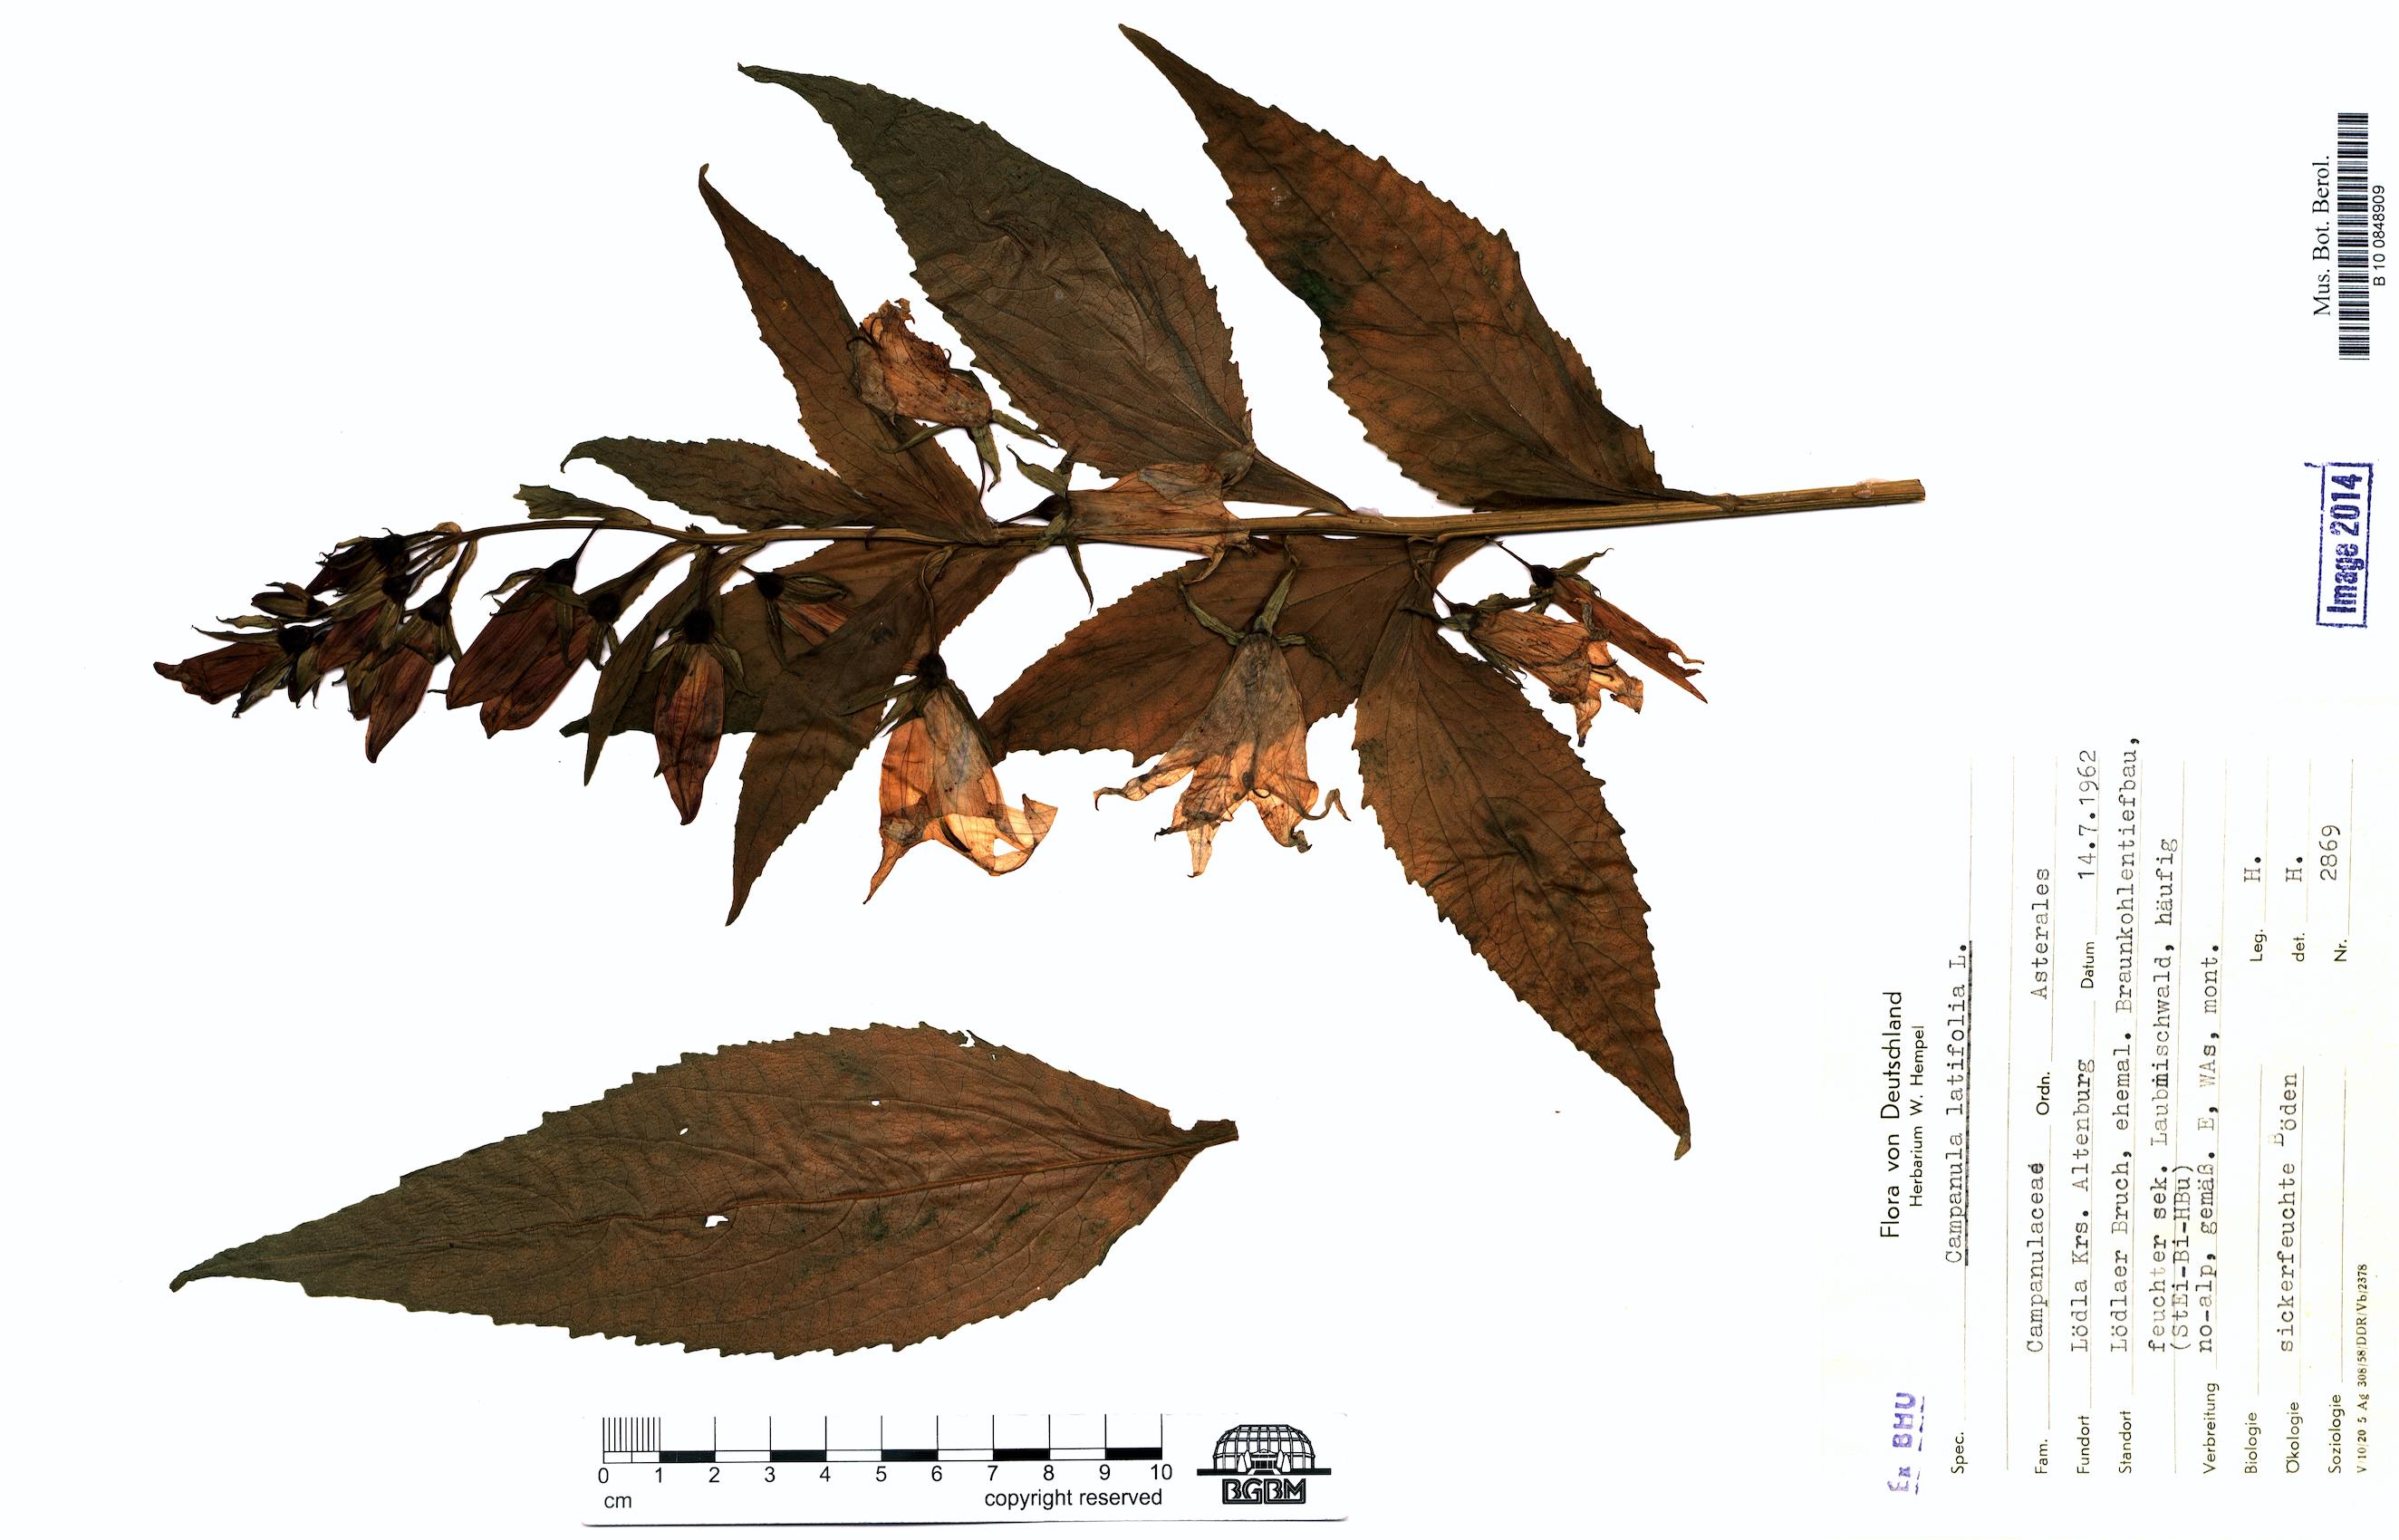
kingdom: Plantae
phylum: Tracheophyta
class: Magnoliopsida
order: Asterales
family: Campanulaceae
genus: Campanula
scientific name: Campanula latifolia
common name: Giant bellflower
